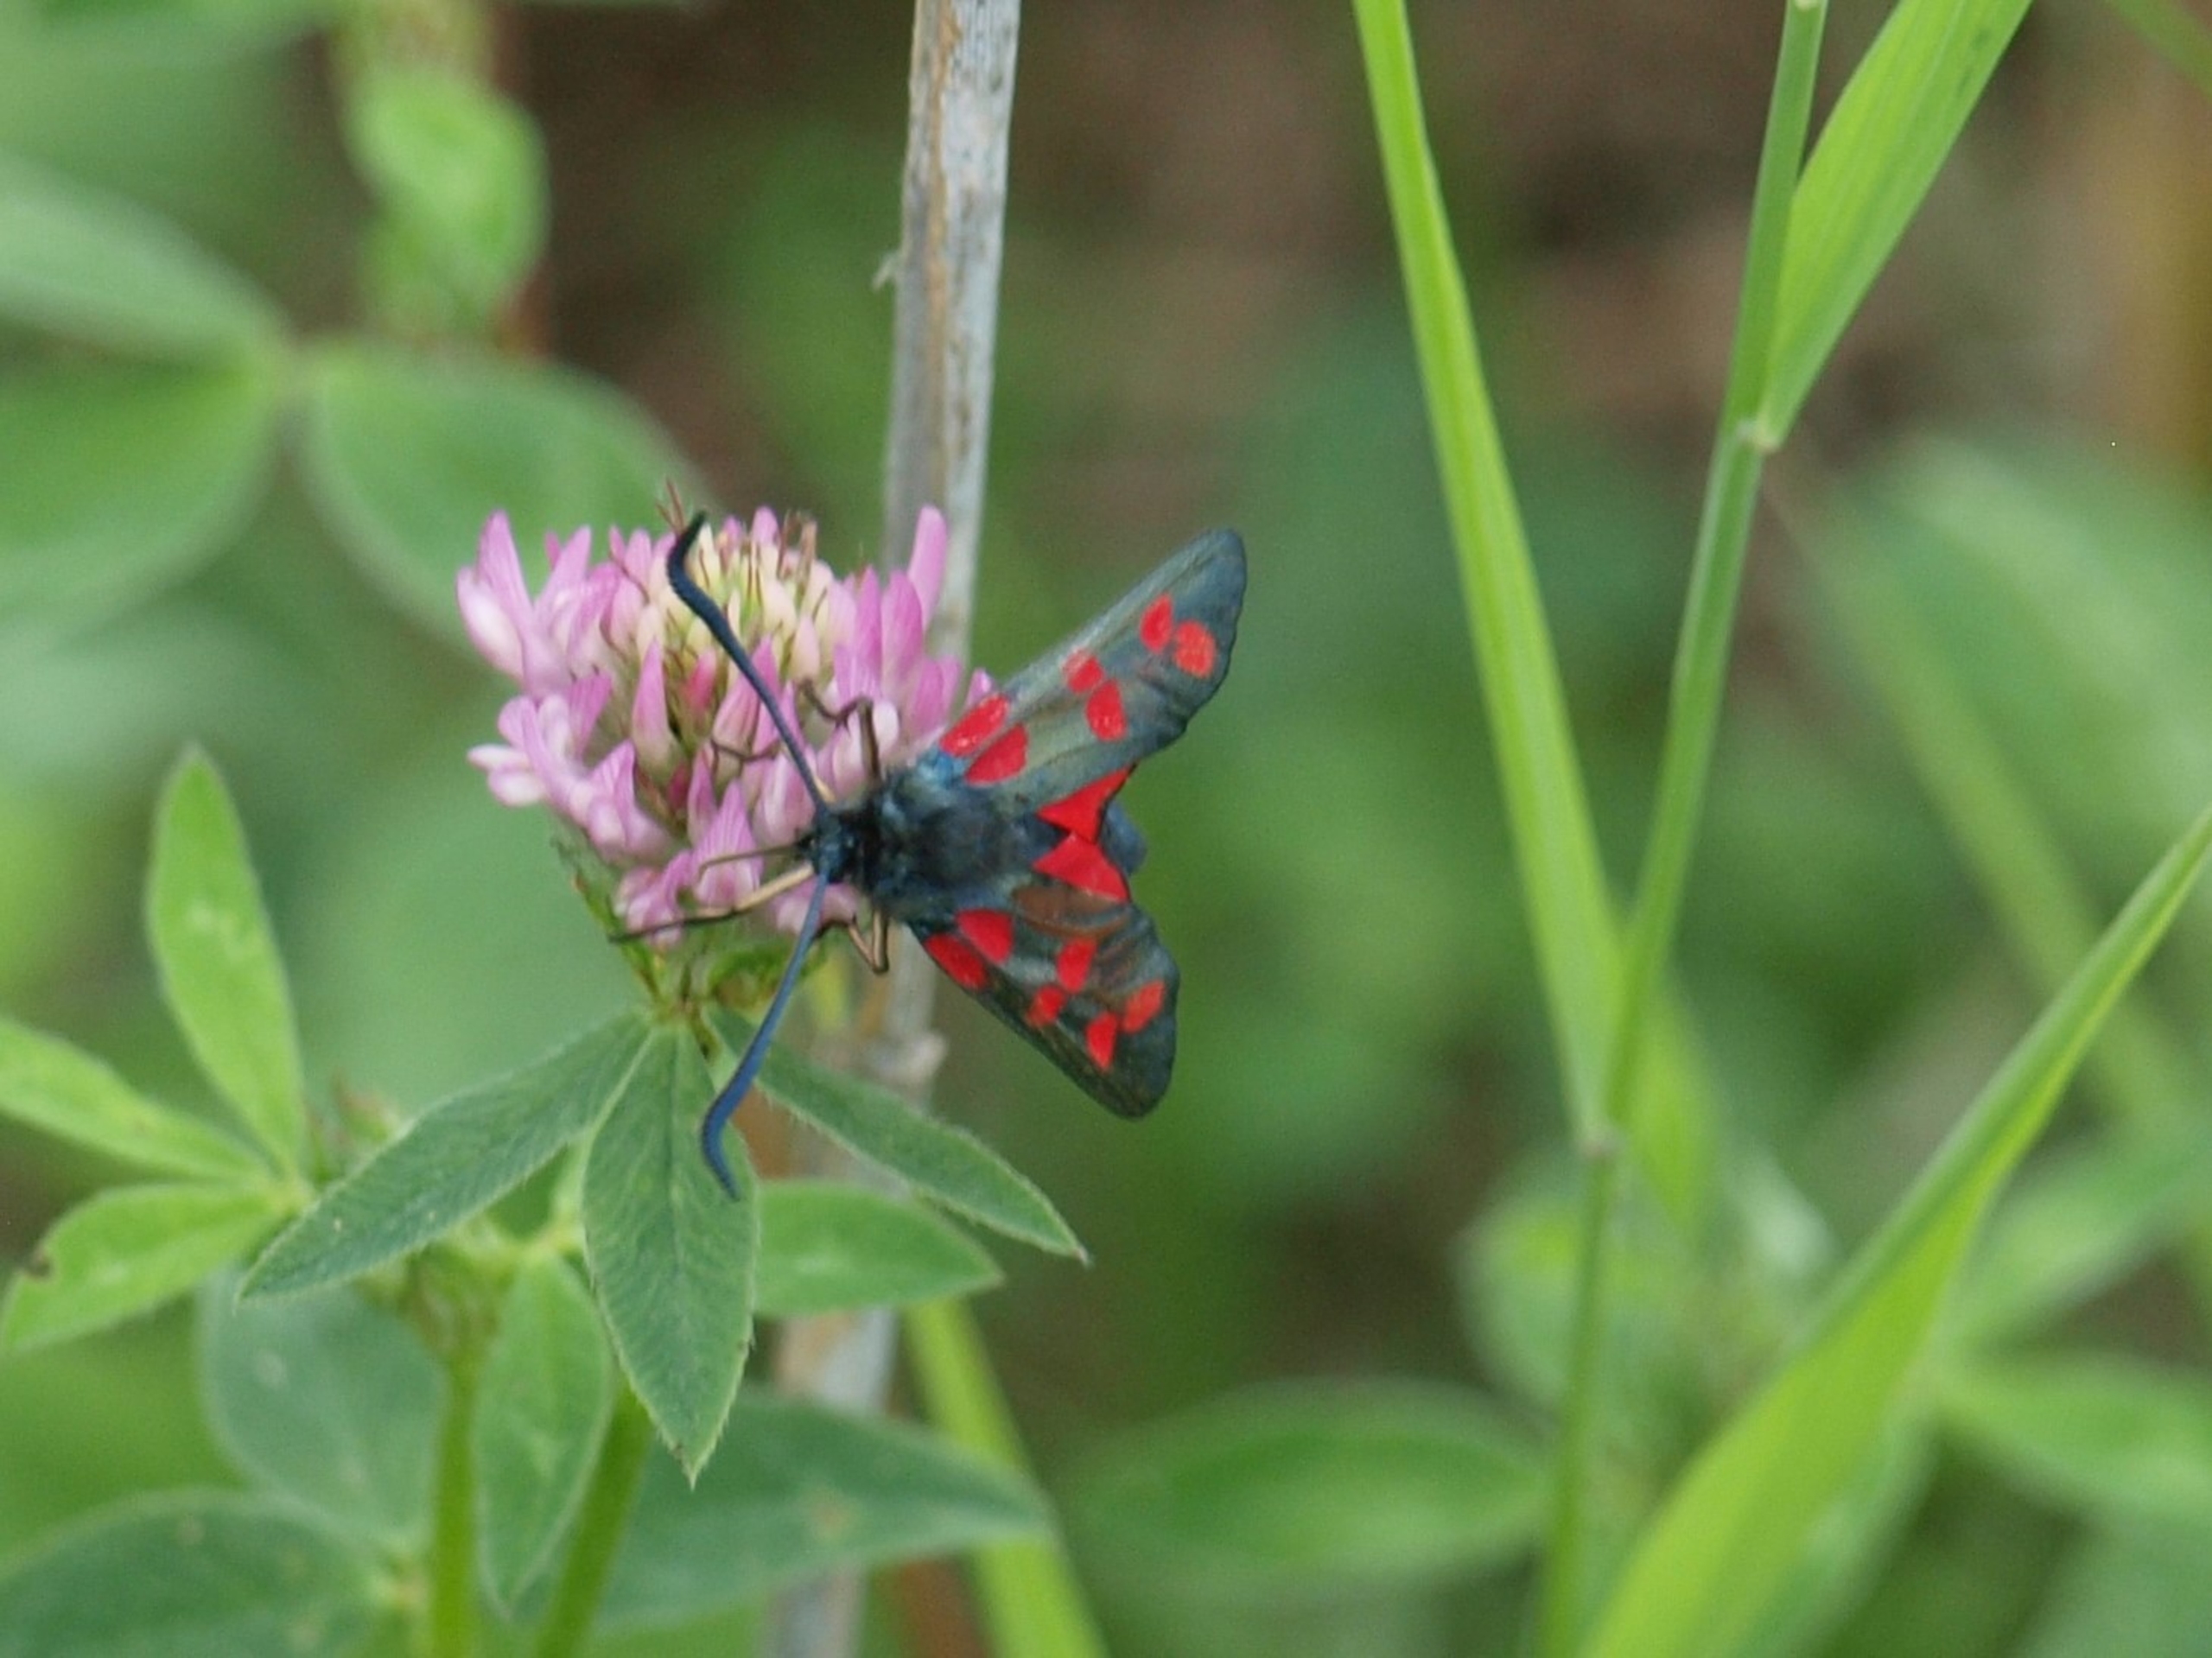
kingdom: Animalia
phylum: Arthropoda
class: Insecta
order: Lepidoptera
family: Zygaenidae
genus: Zygaena
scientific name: Zygaena filipendulae
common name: Seksplettet køllesværmer
